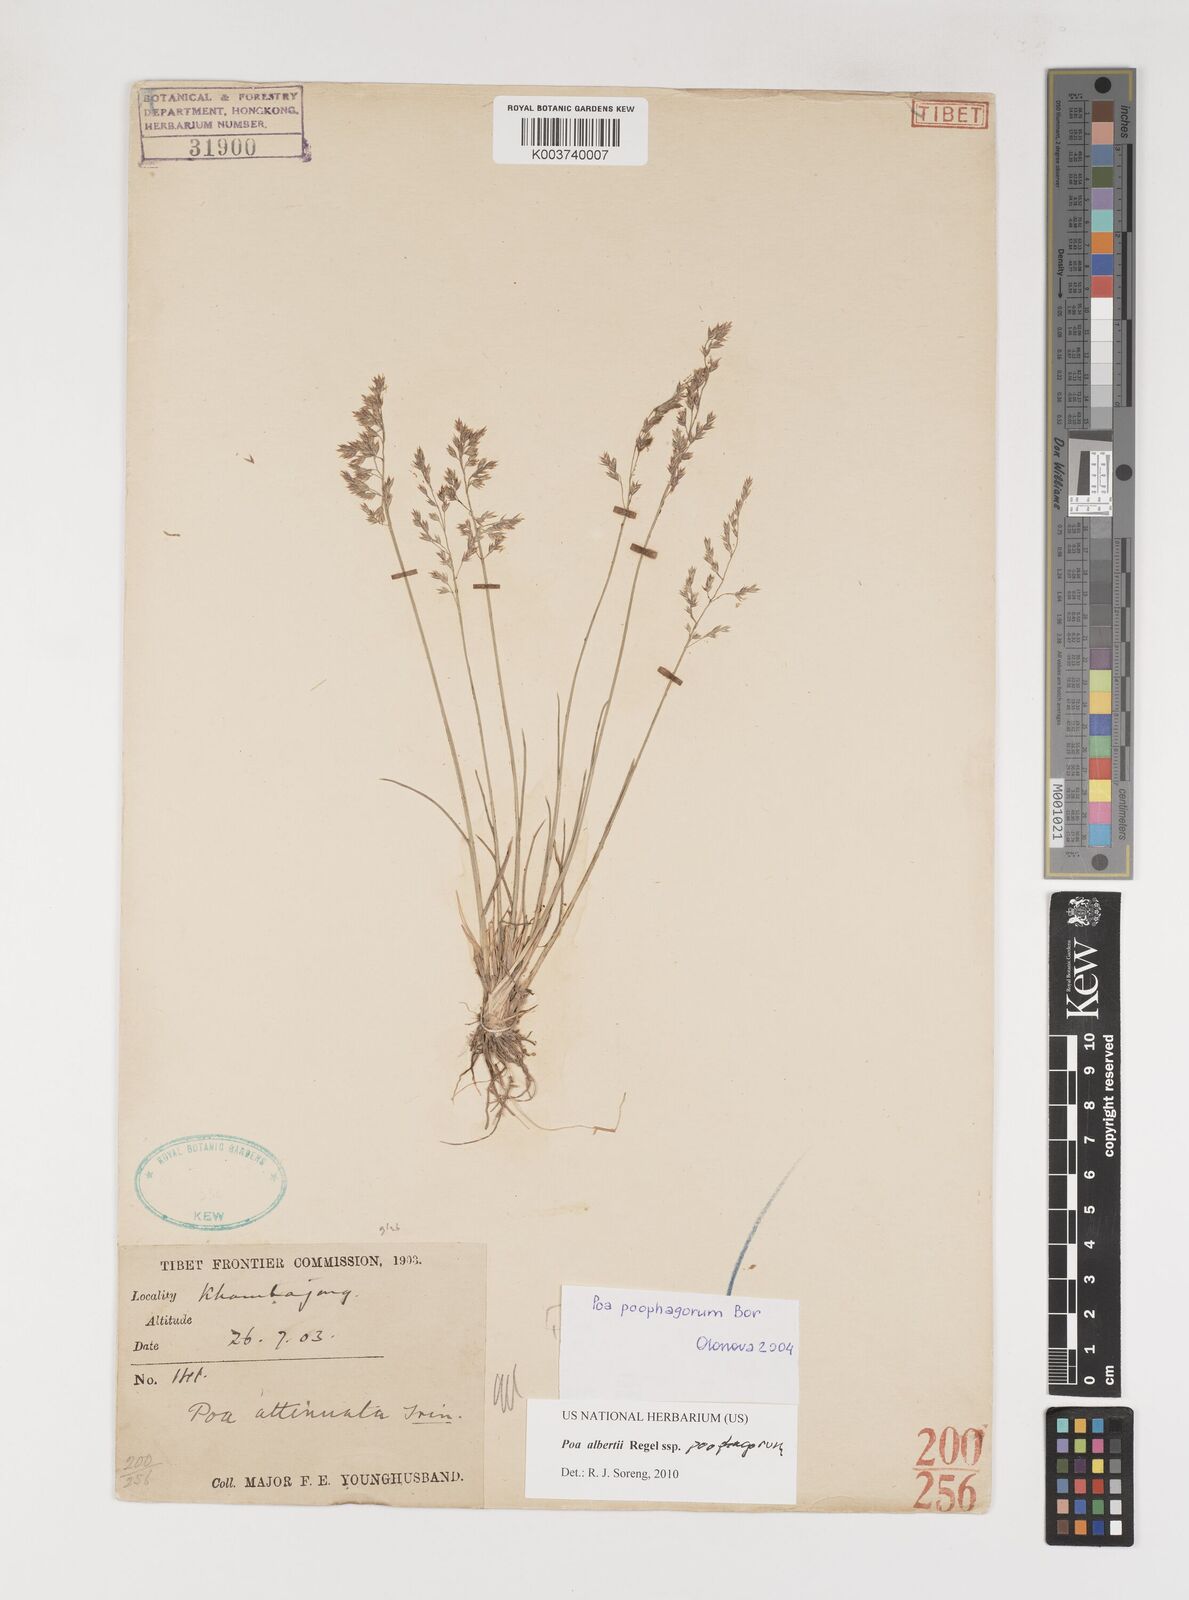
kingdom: Plantae
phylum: Tracheophyta
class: Liliopsida
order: Poales
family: Poaceae
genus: Poa
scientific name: Poa alberti
